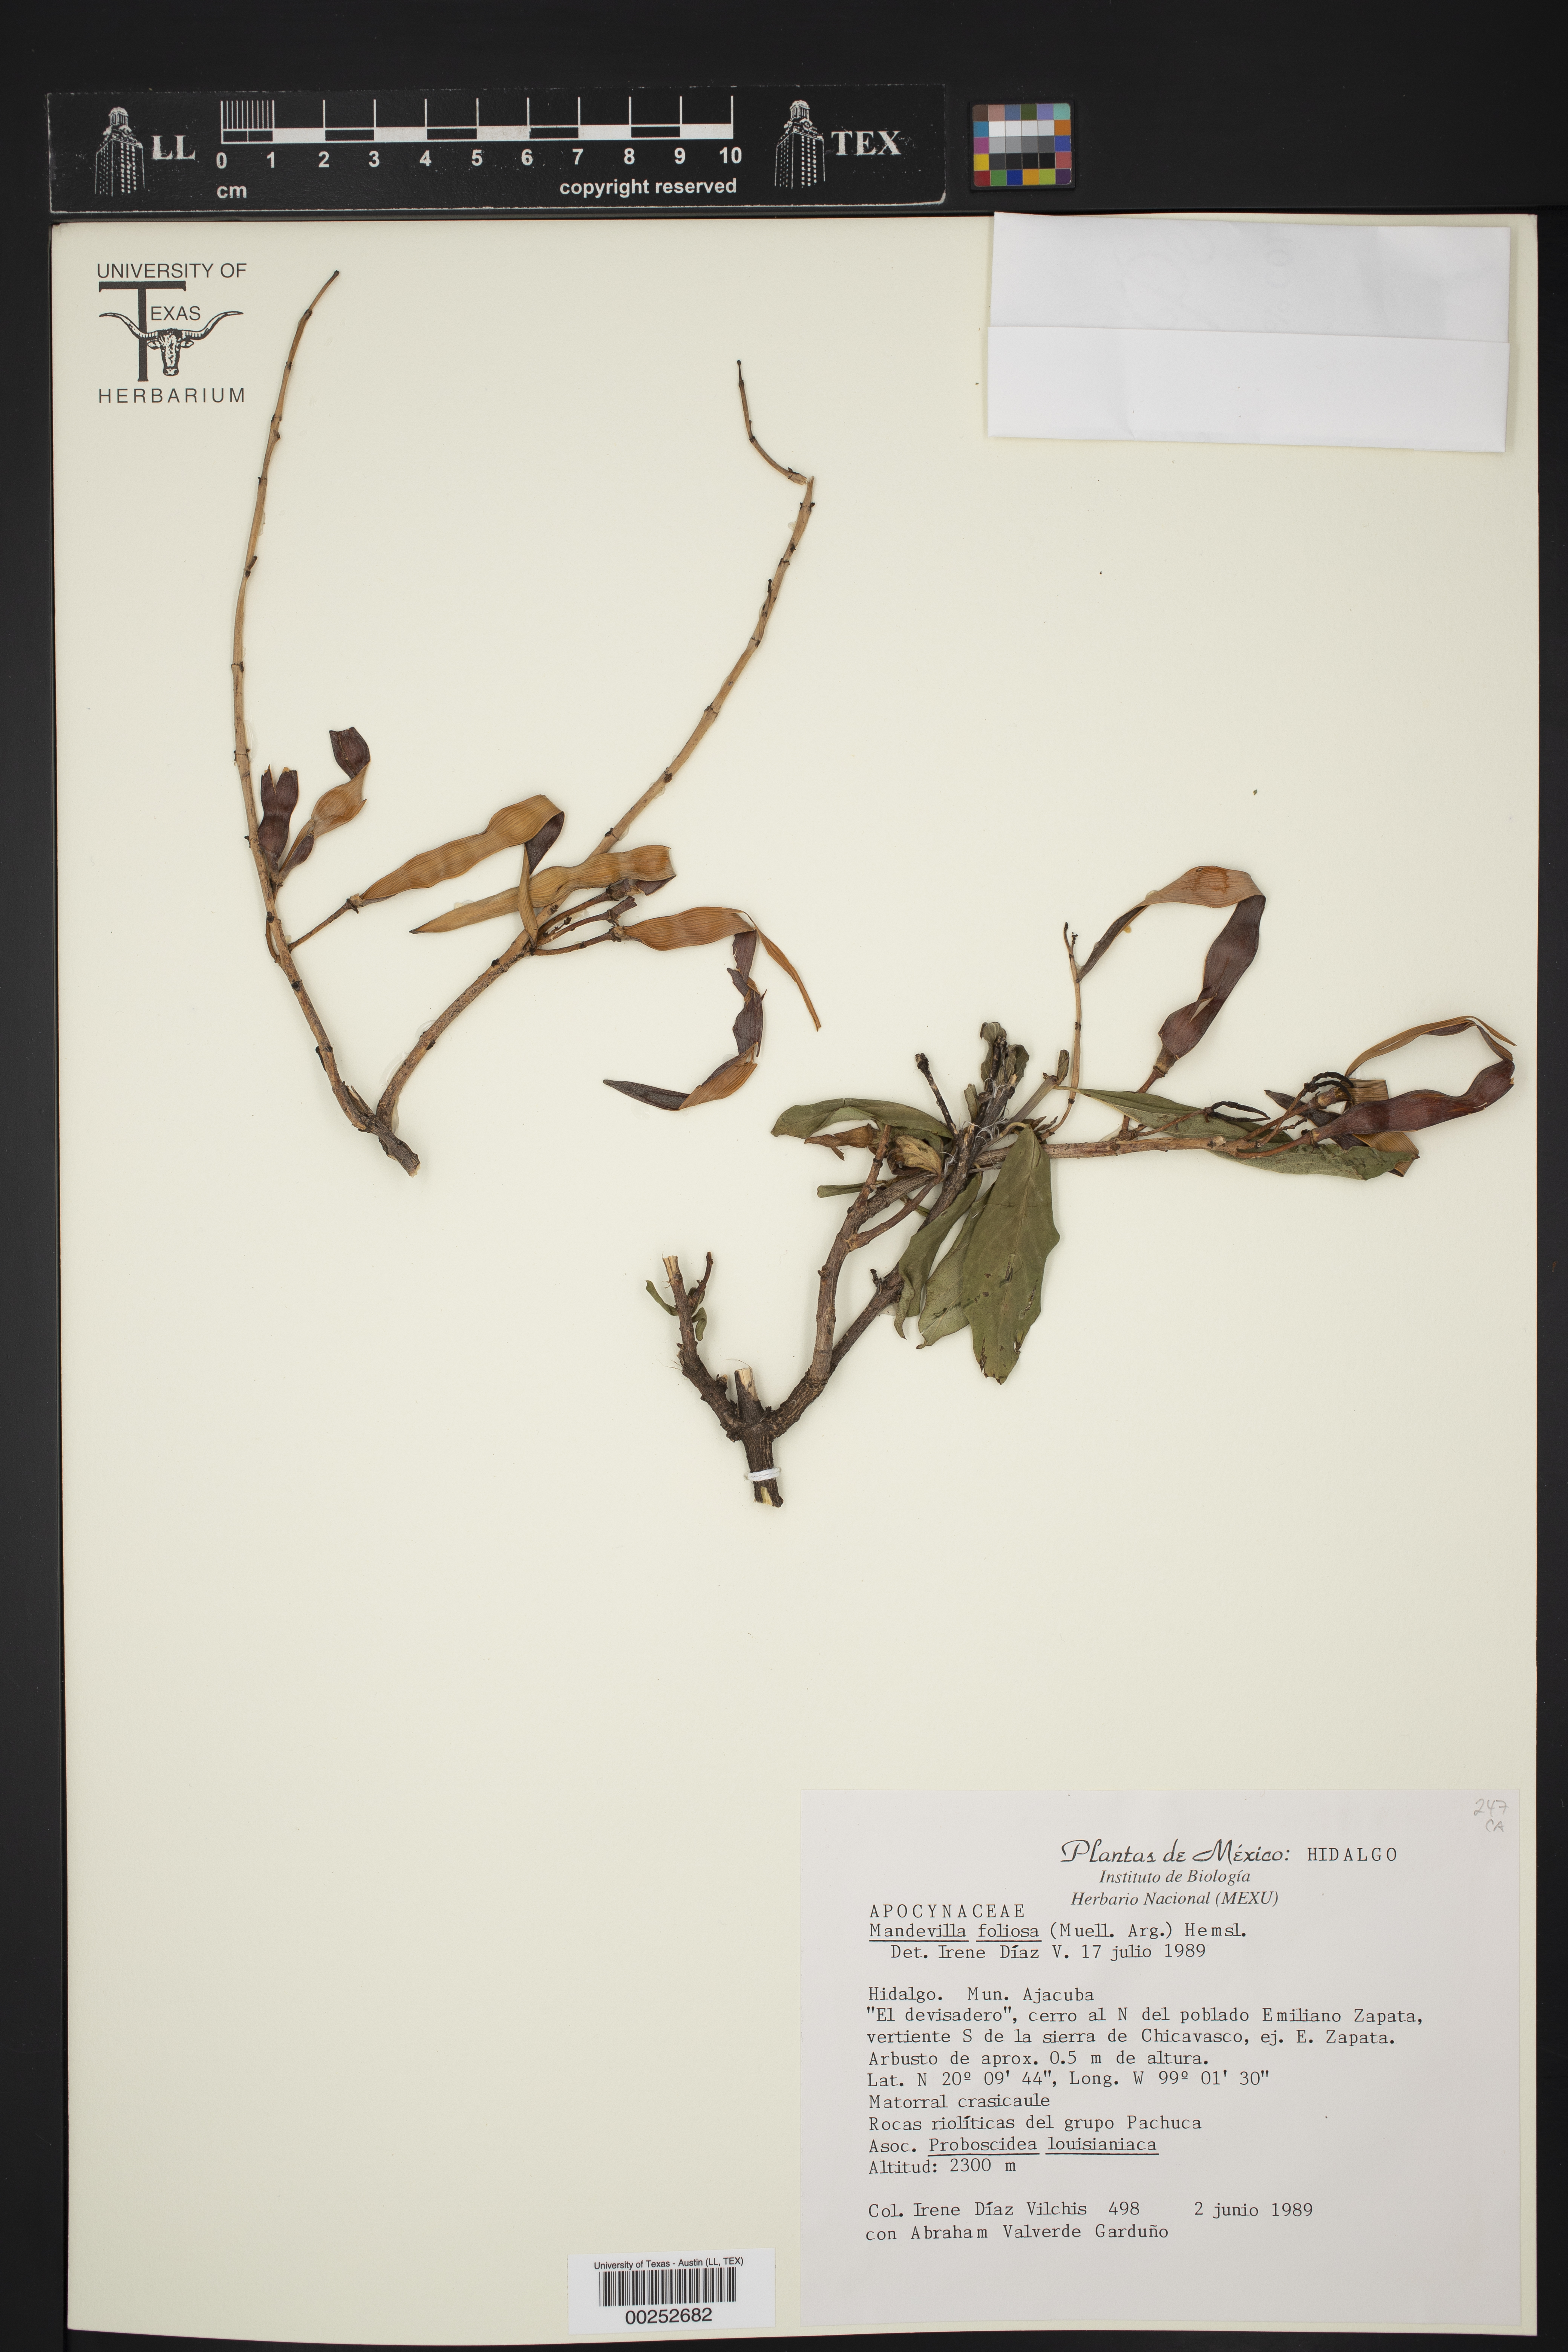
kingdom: Plantae
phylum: Tracheophyta
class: Magnoliopsida
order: Gentianales
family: Apocynaceae
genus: Mandevilla
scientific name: Mandevilla foliosa
